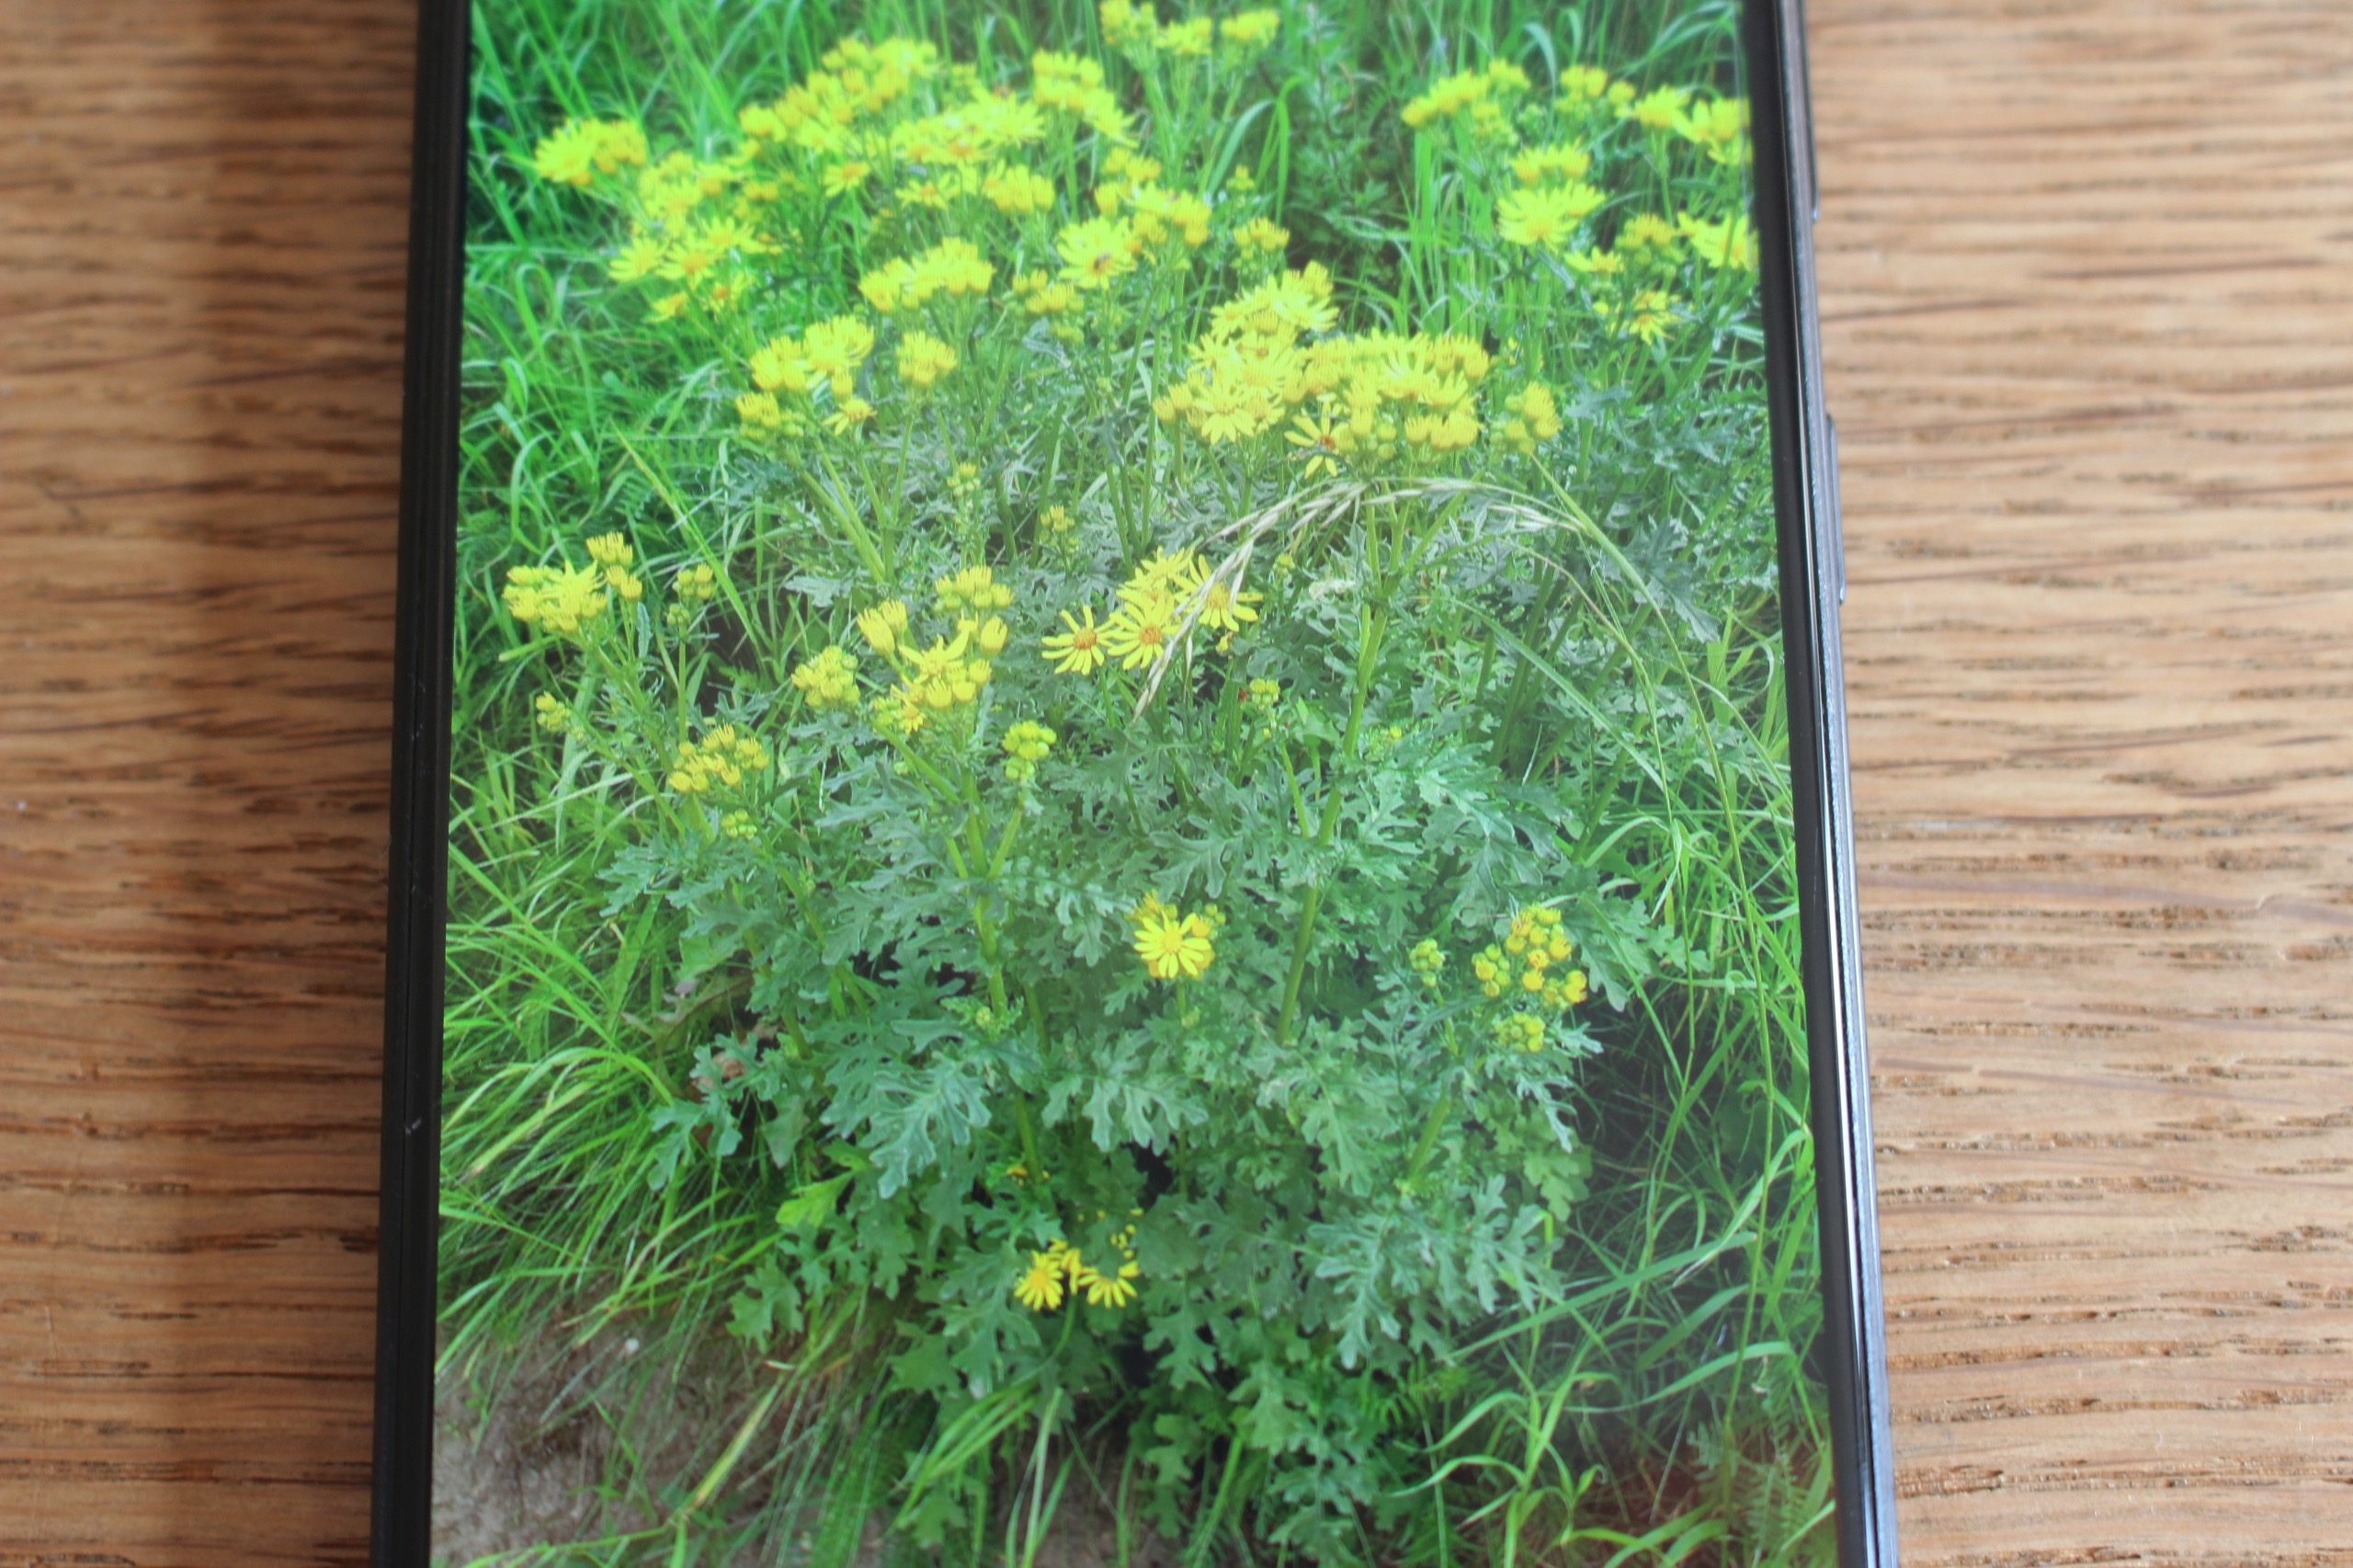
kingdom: Plantae
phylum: Tracheophyta
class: Magnoliopsida
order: Asterales
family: Asteraceae
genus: Jacobaea
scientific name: Jacobaea vulgaris
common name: Eng-brandbæger
